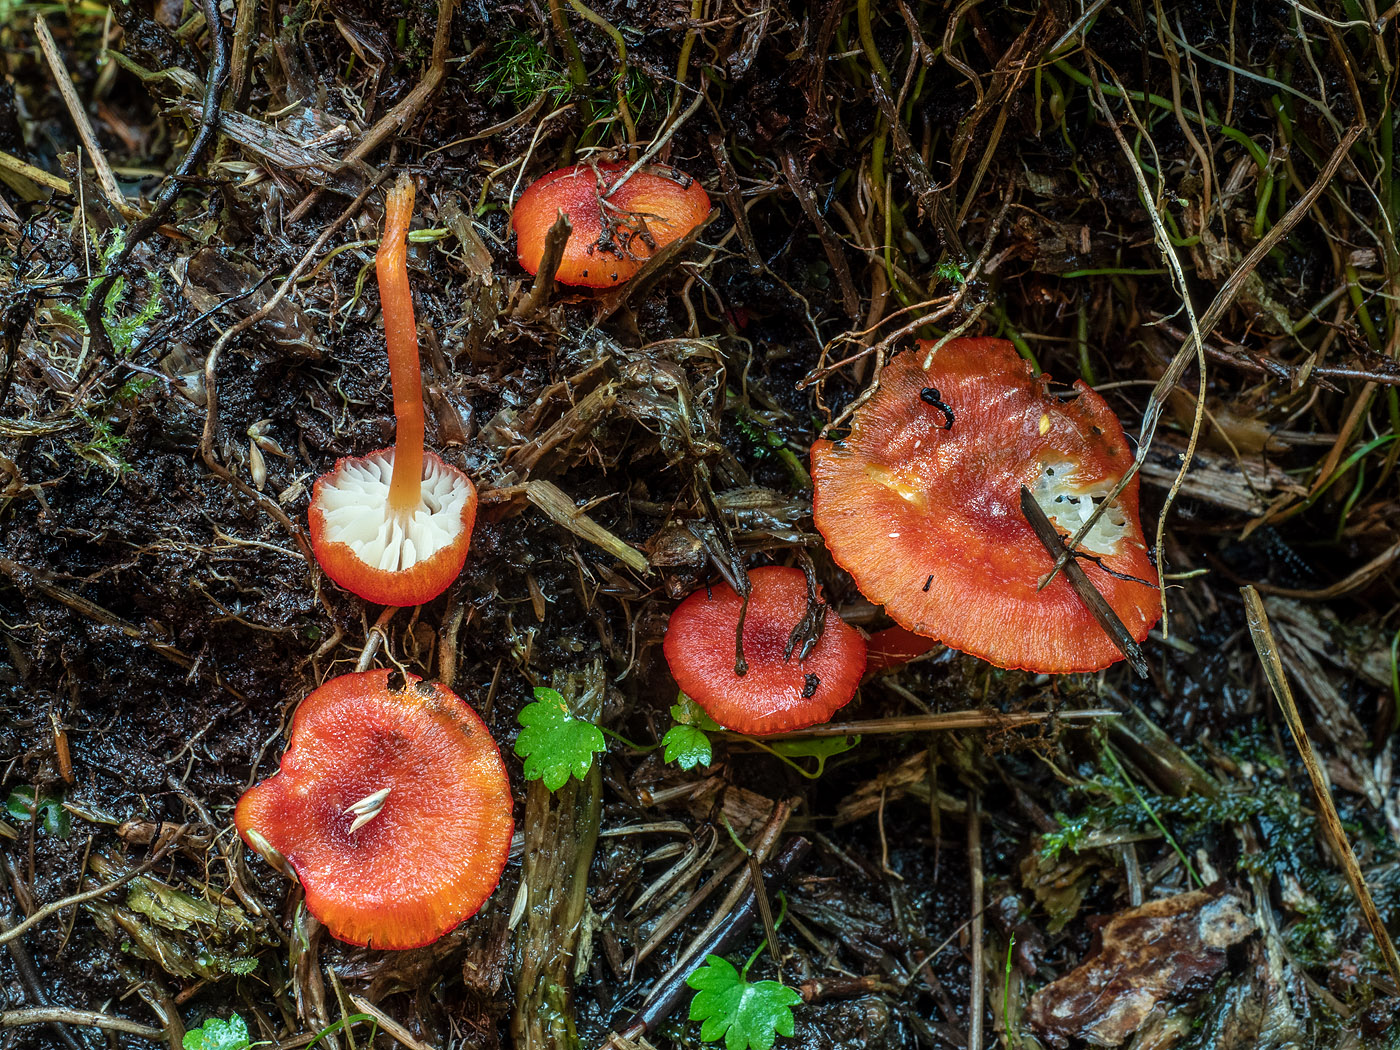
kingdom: Fungi
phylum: Basidiomycota
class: Agaricomycetes
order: Agaricales
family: Hygrophoraceae
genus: Hygrocybe
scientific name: Hygrocybe helobia
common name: hvidløgs-vokshat
